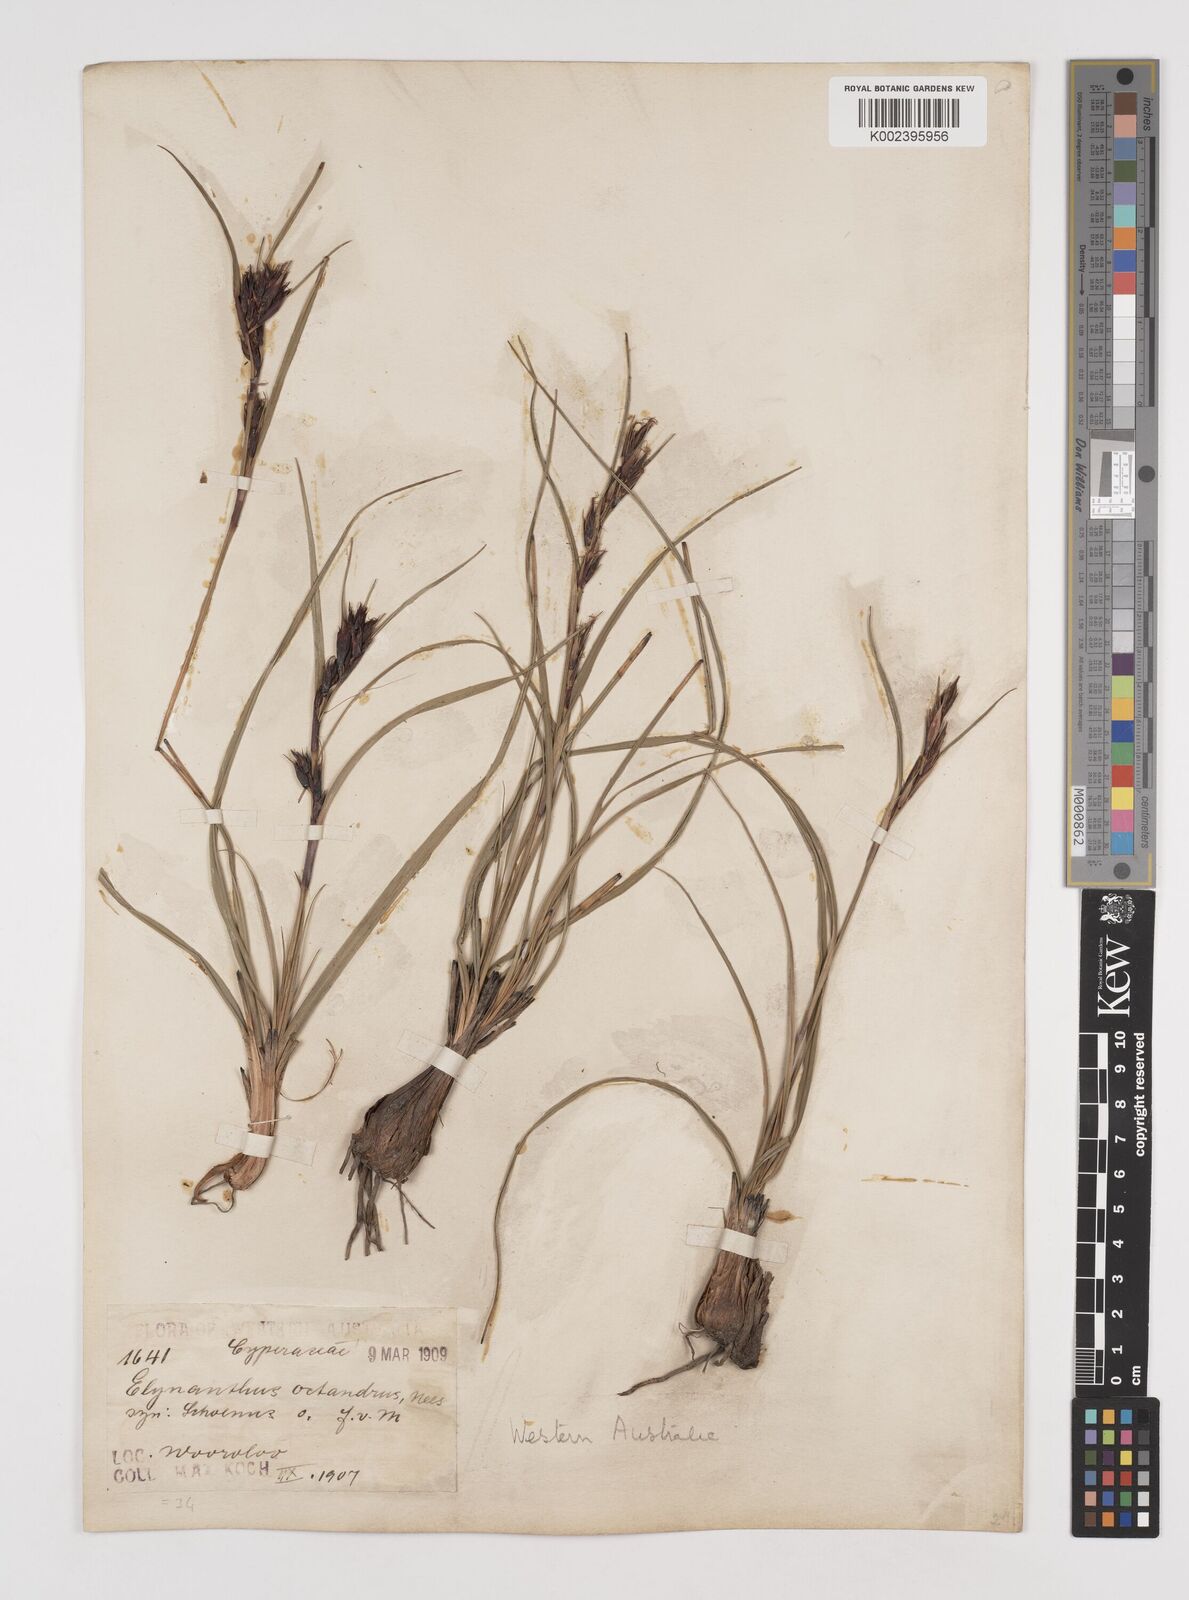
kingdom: Plantae
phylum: Tracheophyta
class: Liliopsida
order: Poales
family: Cyperaceae
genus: Tetraria
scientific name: Tetraria octandra
